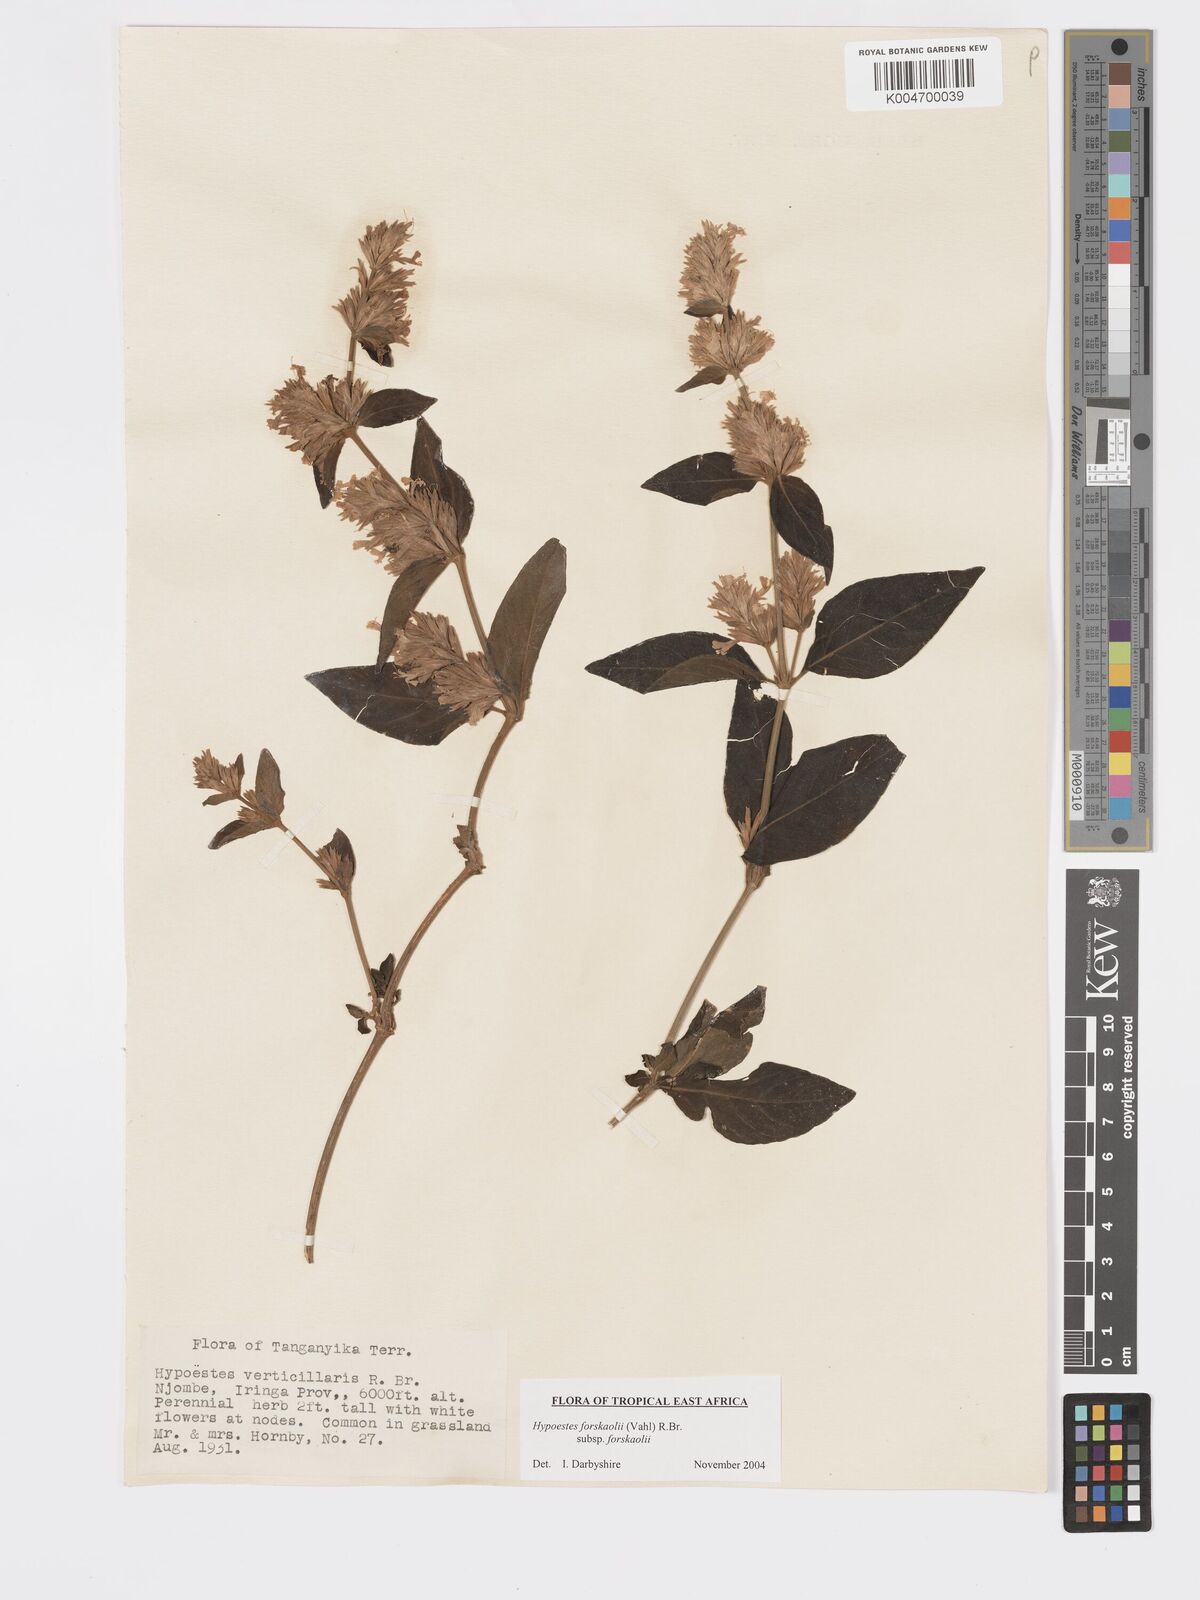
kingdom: Plantae
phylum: Tracheophyta
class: Magnoliopsida
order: Lamiales
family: Acanthaceae
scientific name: Acanthaceae
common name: Acanthaceae
